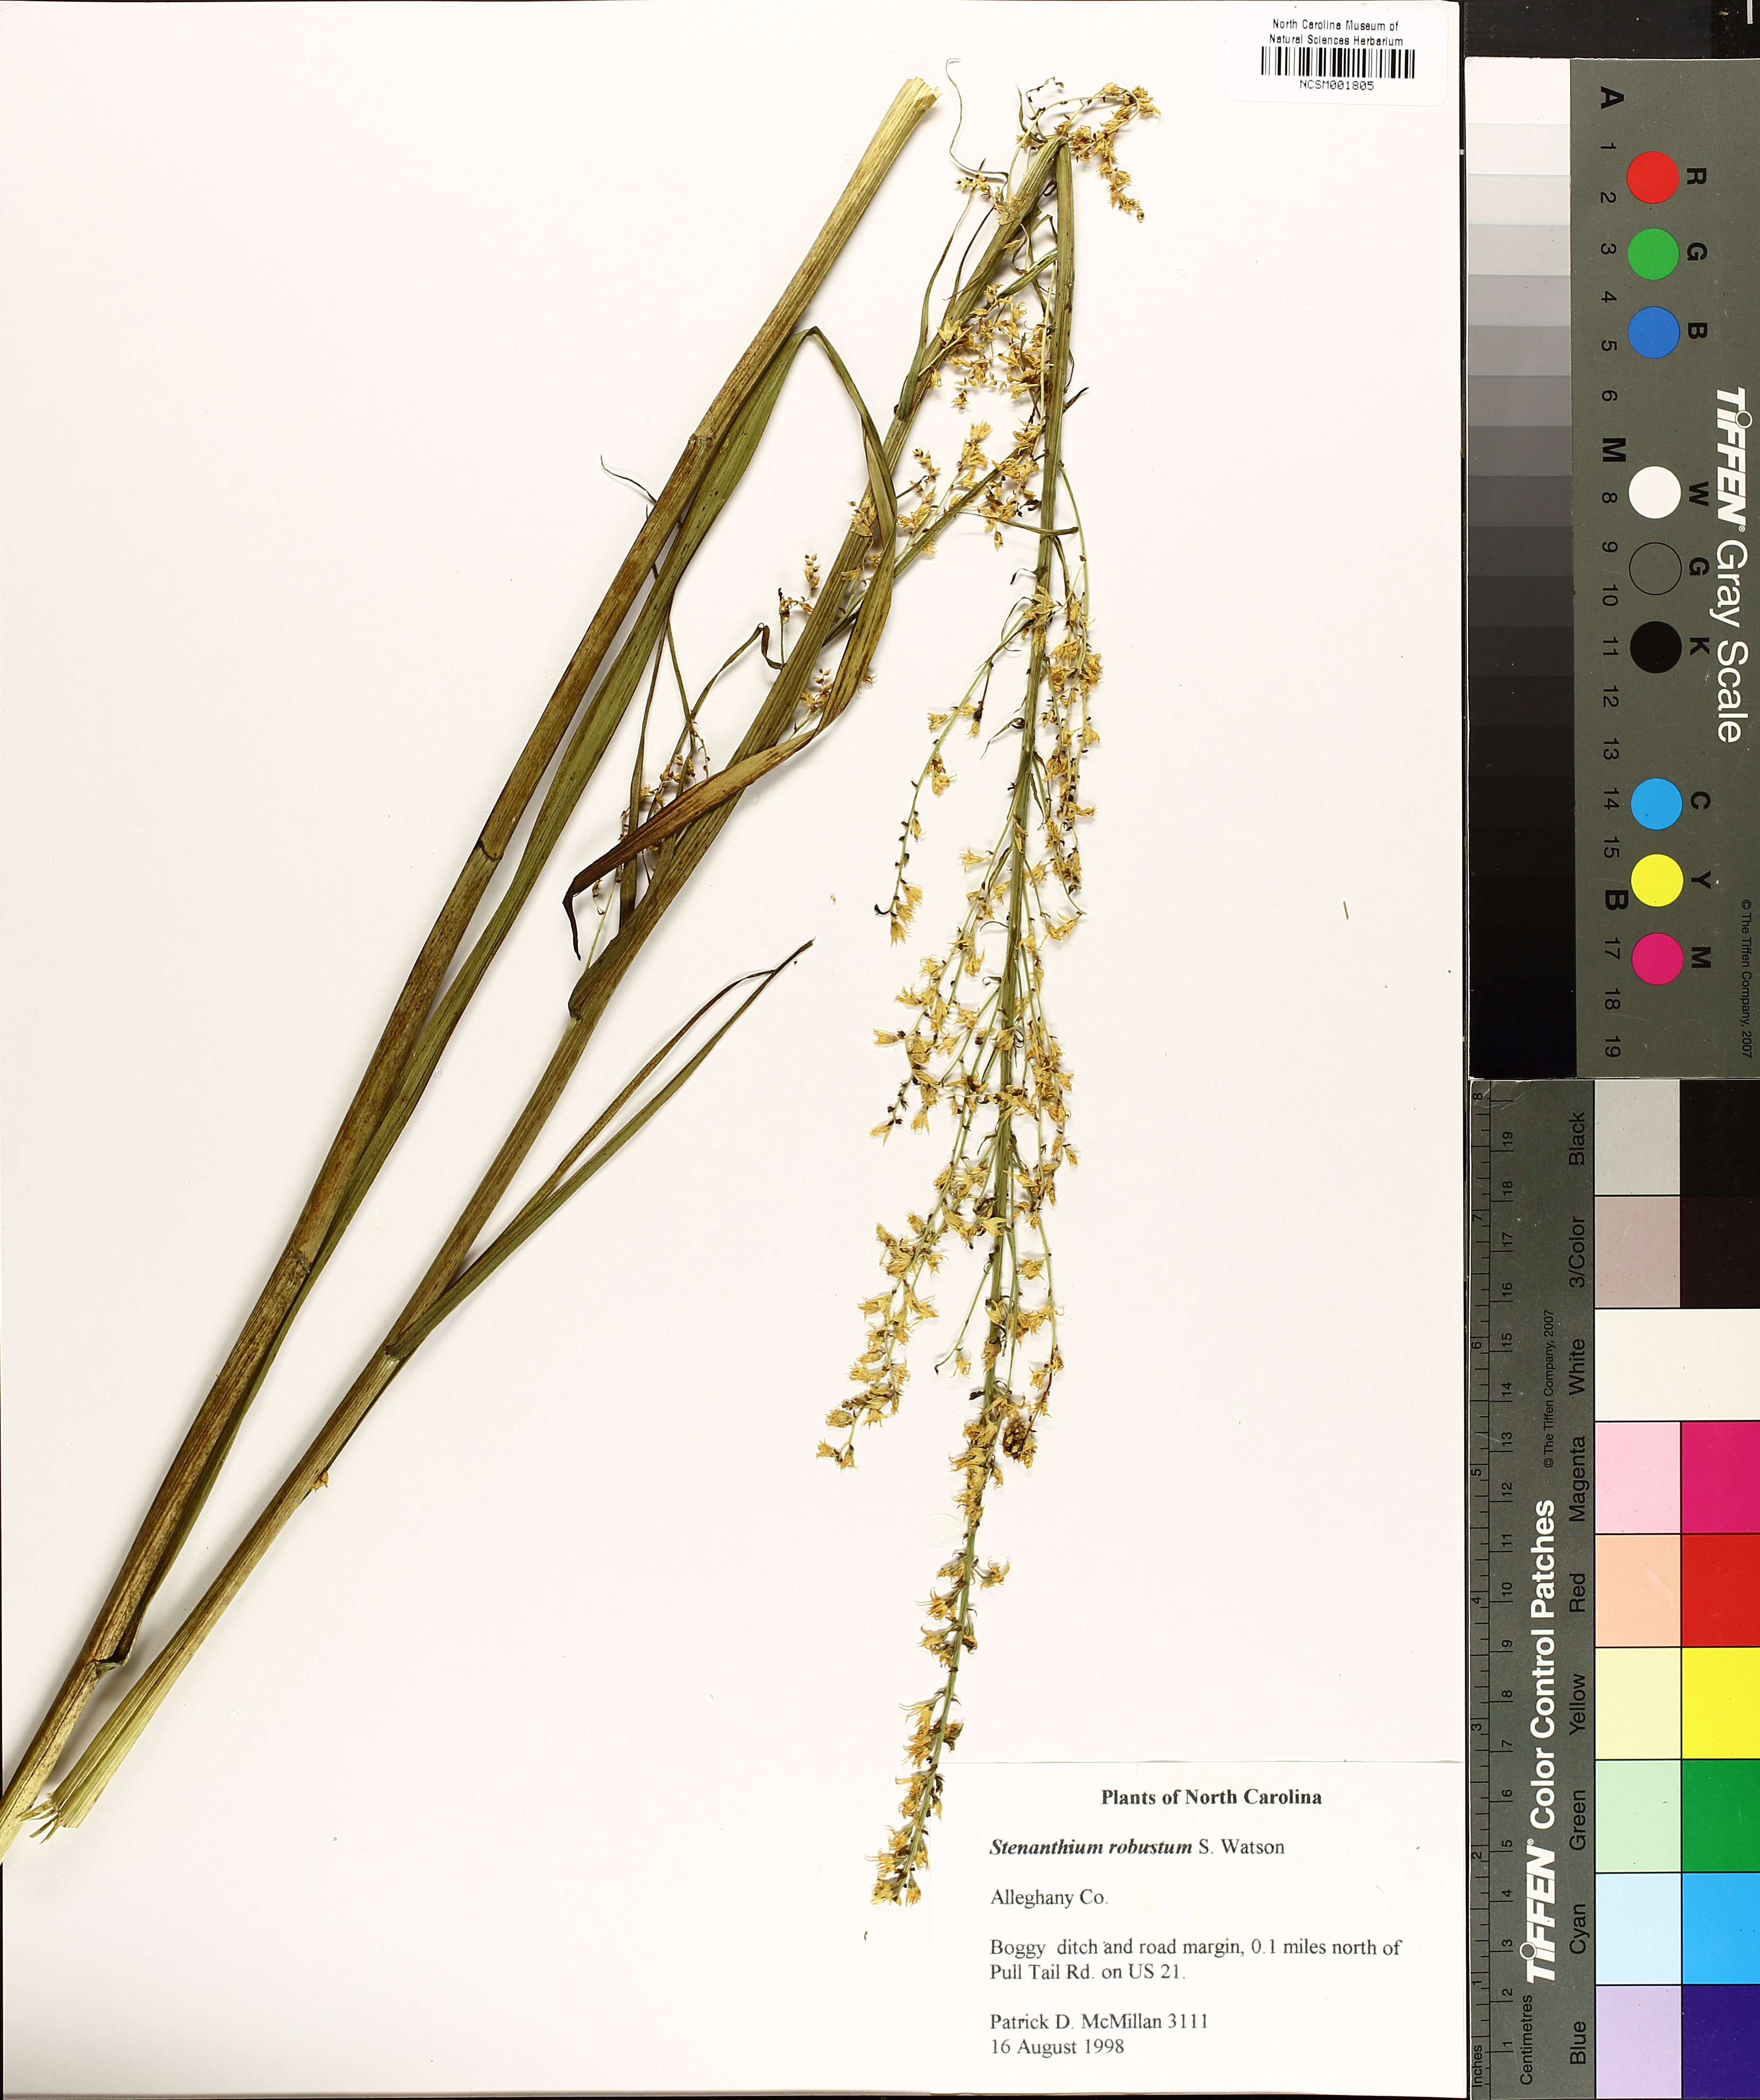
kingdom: Plantae
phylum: Tracheophyta
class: Liliopsida
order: Liliales
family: Melanthiaceae
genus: Stenanthium
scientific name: Stenanthium gramineum
